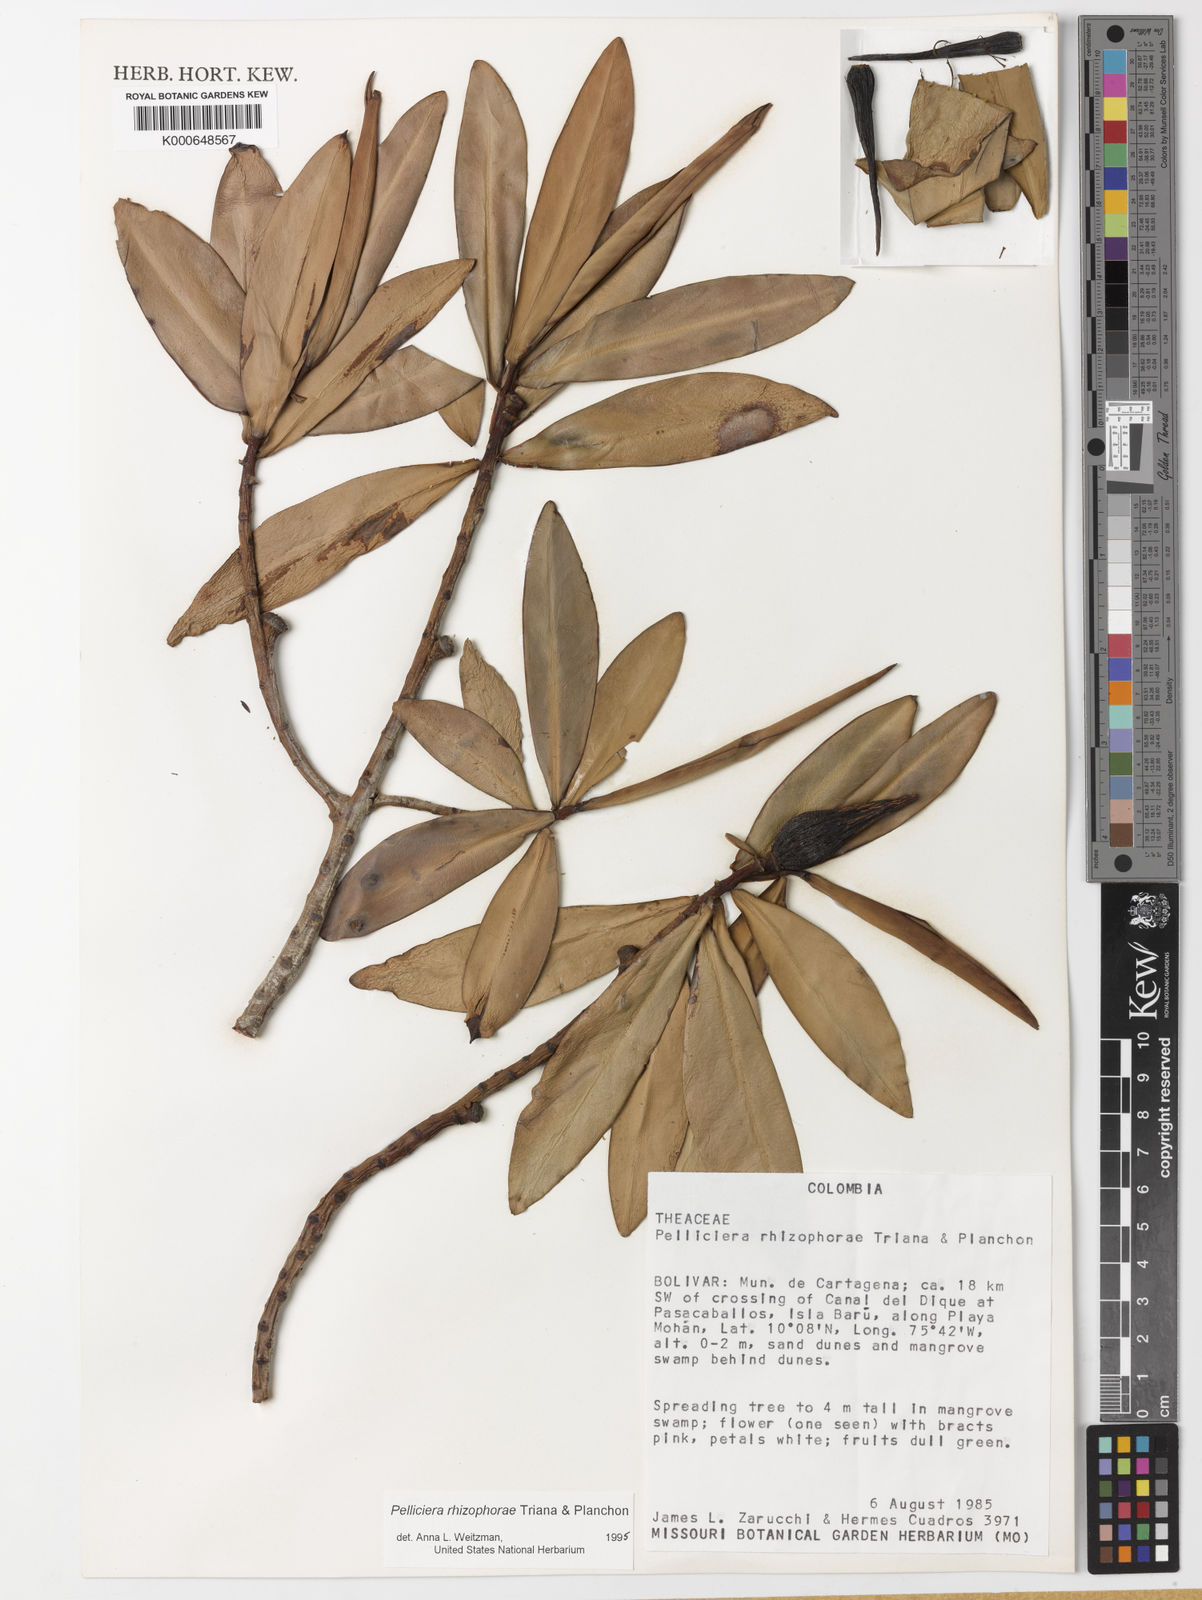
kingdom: Plantae
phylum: Tracheophyta
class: Magnoliopsida
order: Ericales
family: Tetrameristaceae
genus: Pelliciera
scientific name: Pelliciera rhizophorae
